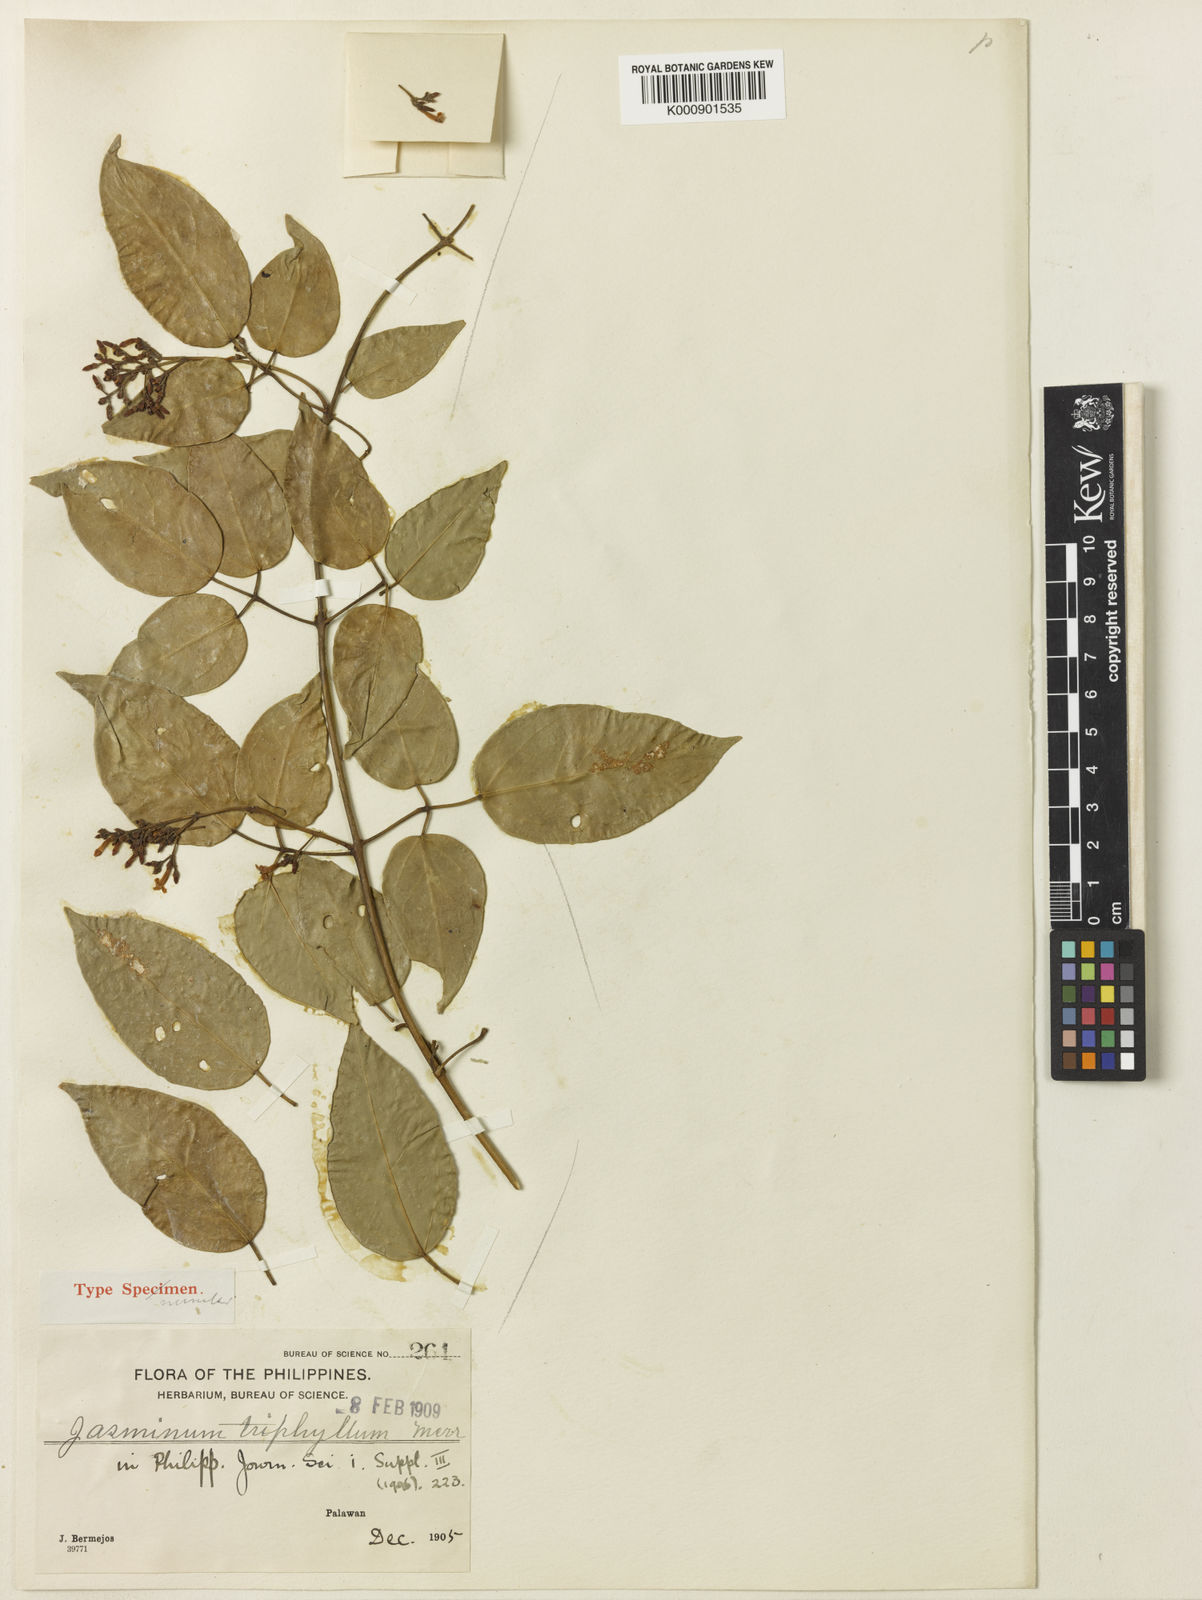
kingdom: Plantae
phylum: Tracheophyta
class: Magnoliopsida
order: Lamiales
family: Oleaceae
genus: Jasminum
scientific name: Jasminum didymum
